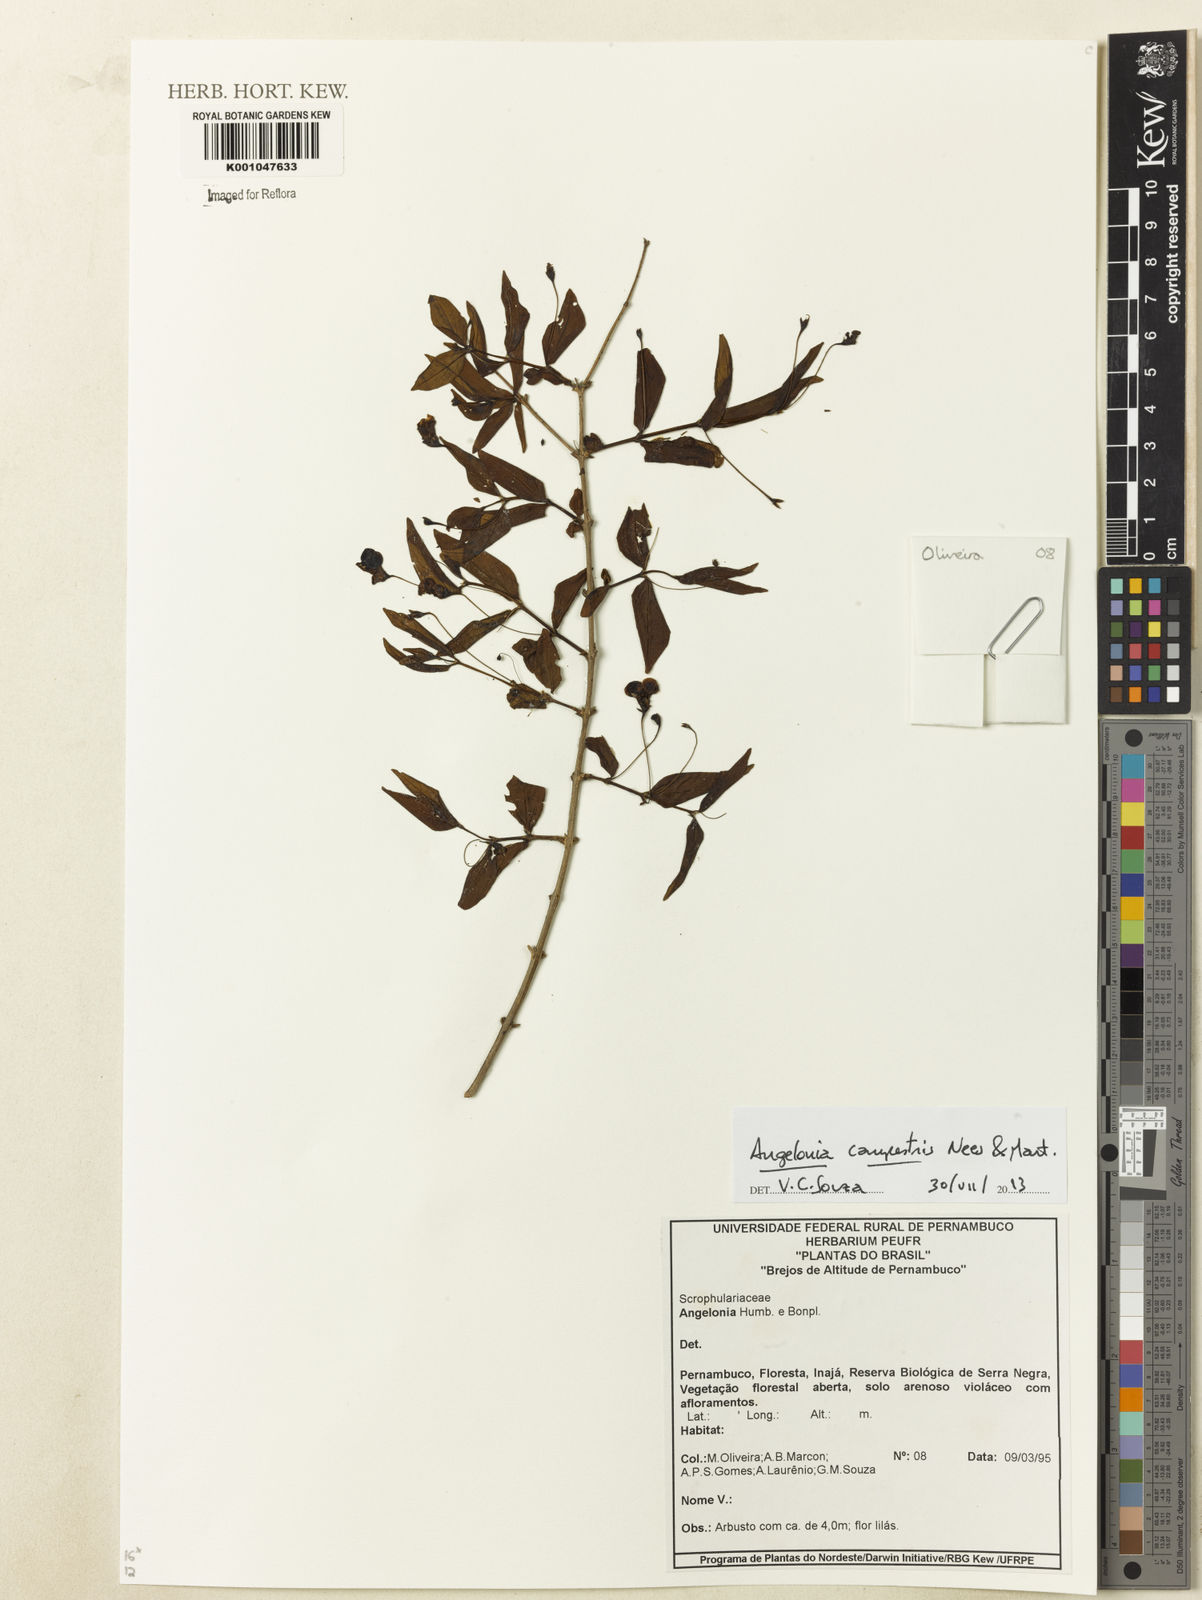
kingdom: Plantae
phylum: Tracheophyta
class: Magnoliopsida
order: Lamiales
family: Plantaginaceae
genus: Angelonia
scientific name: Angelonia campestris
